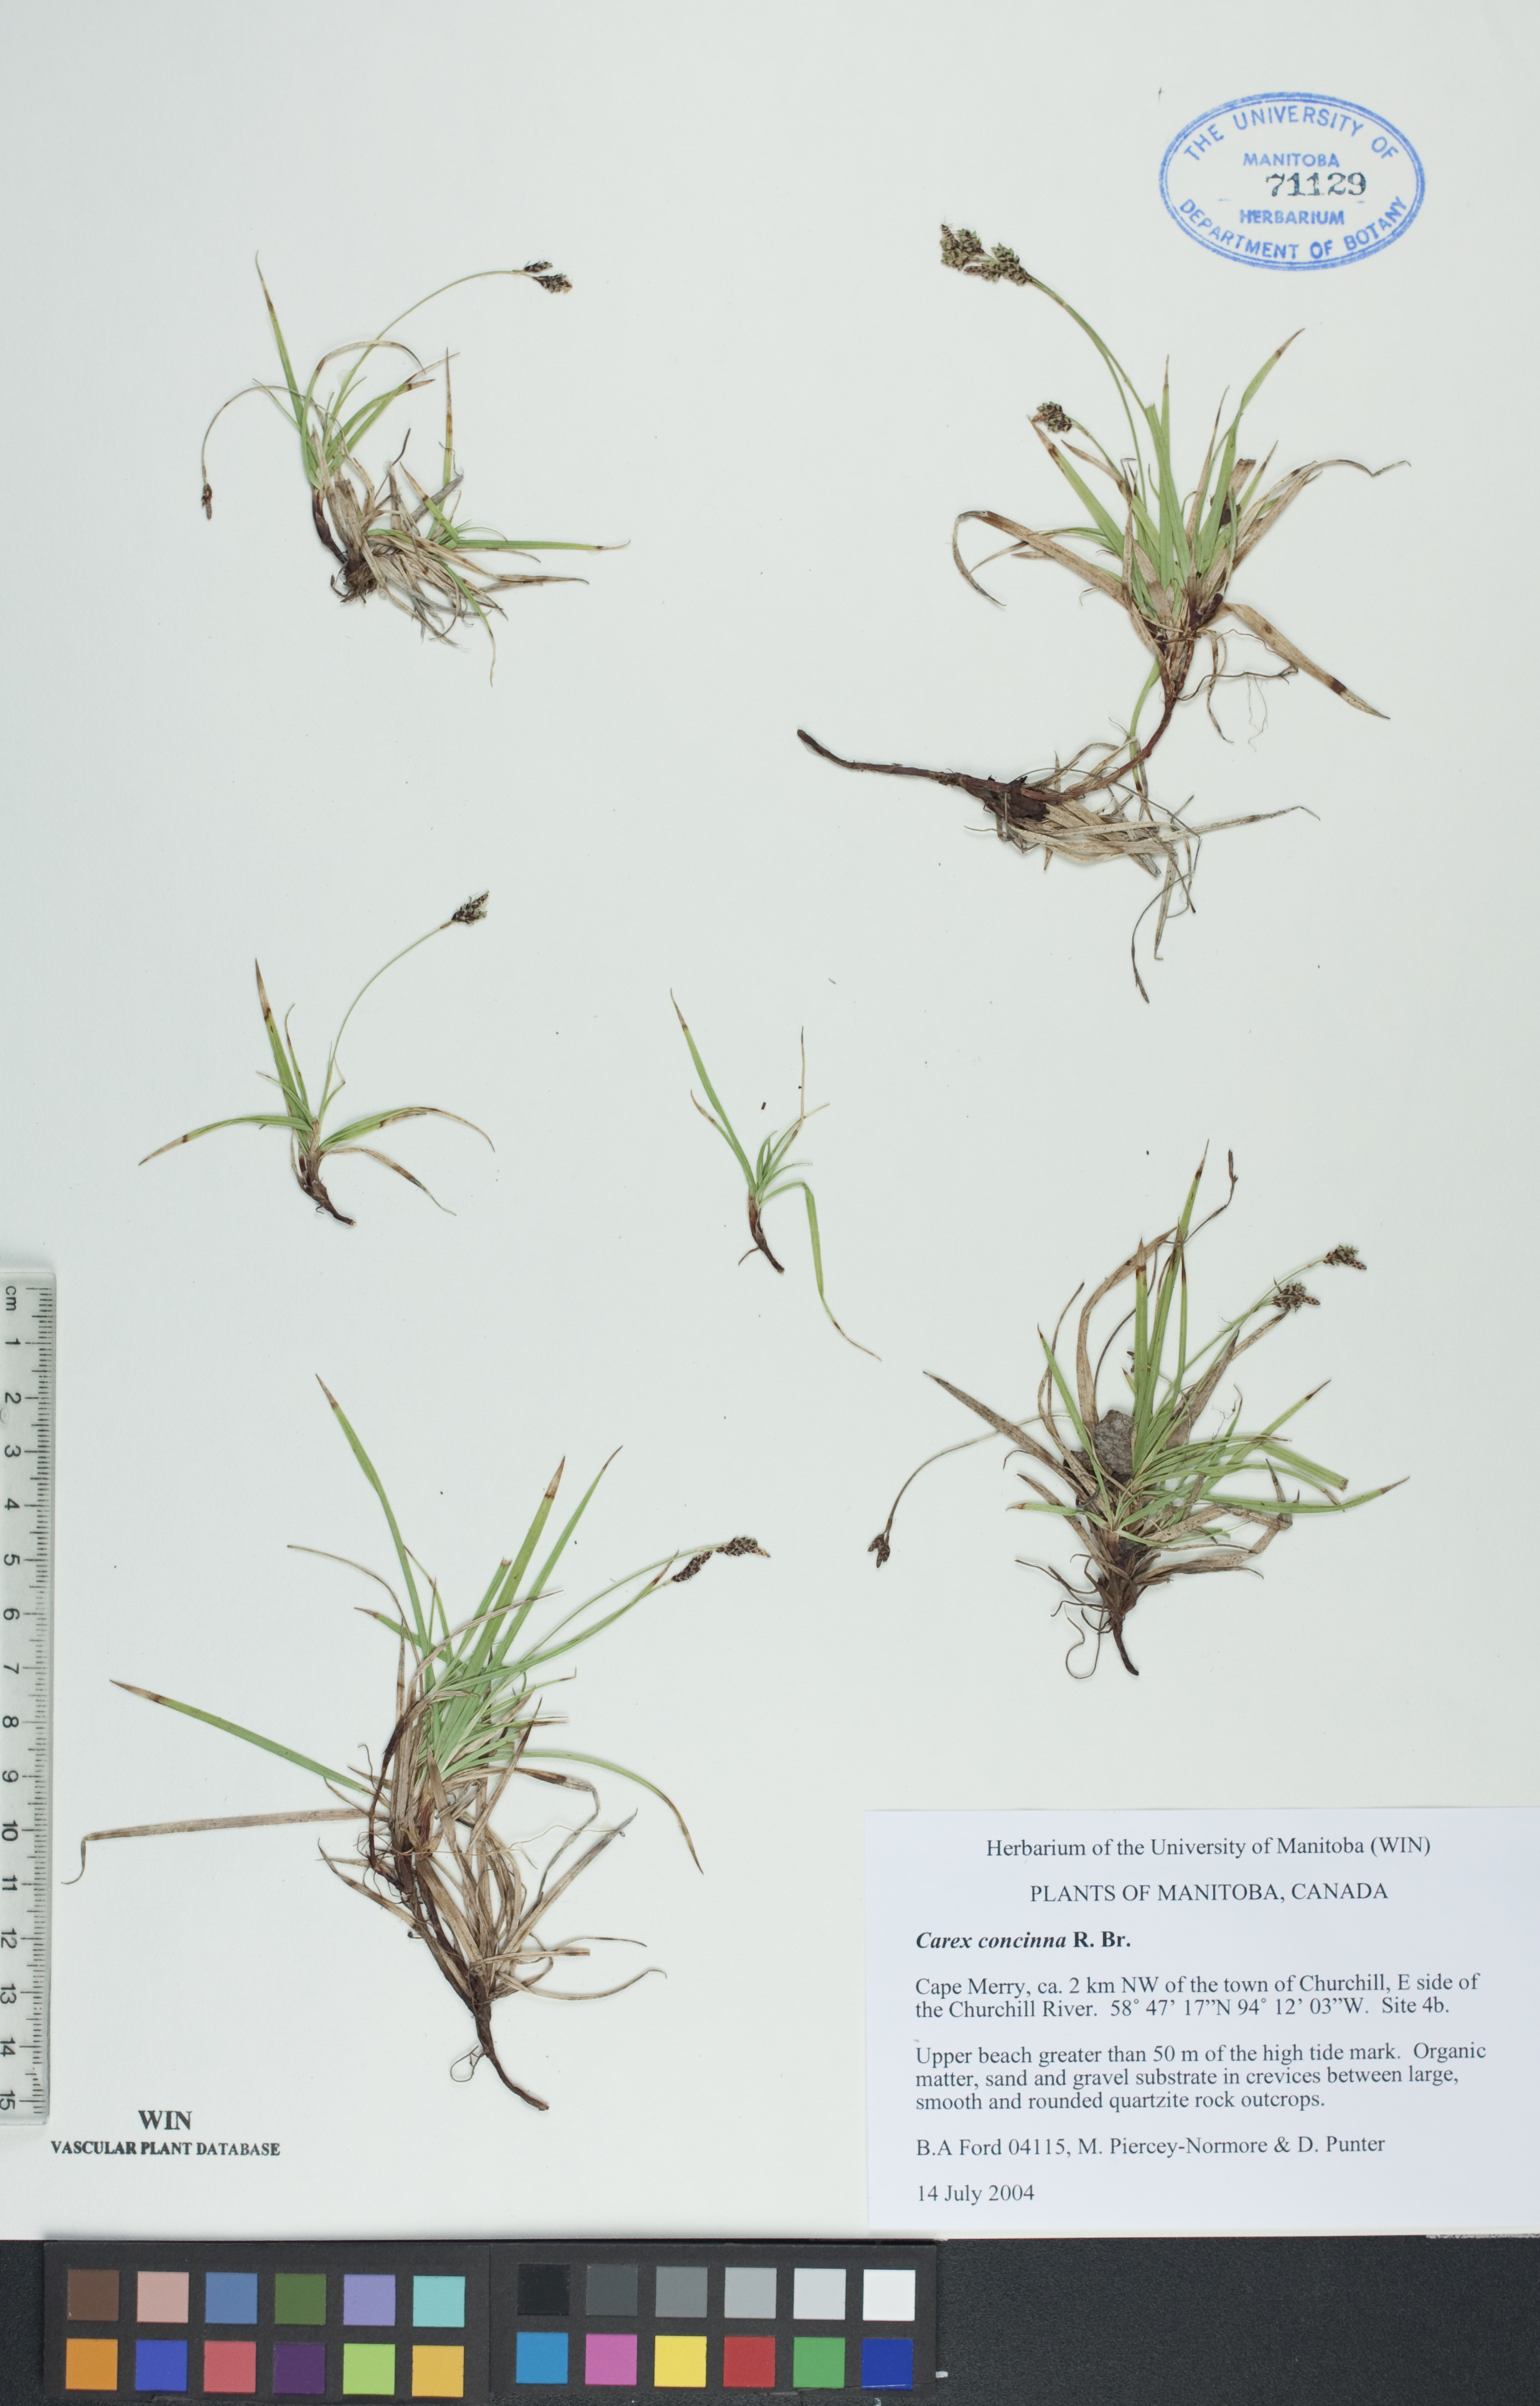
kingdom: Plantae
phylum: Tracheophyta
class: Liliopsida
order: Poales
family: Cyperaceae
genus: Carex
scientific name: Carex concinna
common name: Beautiful sedge
